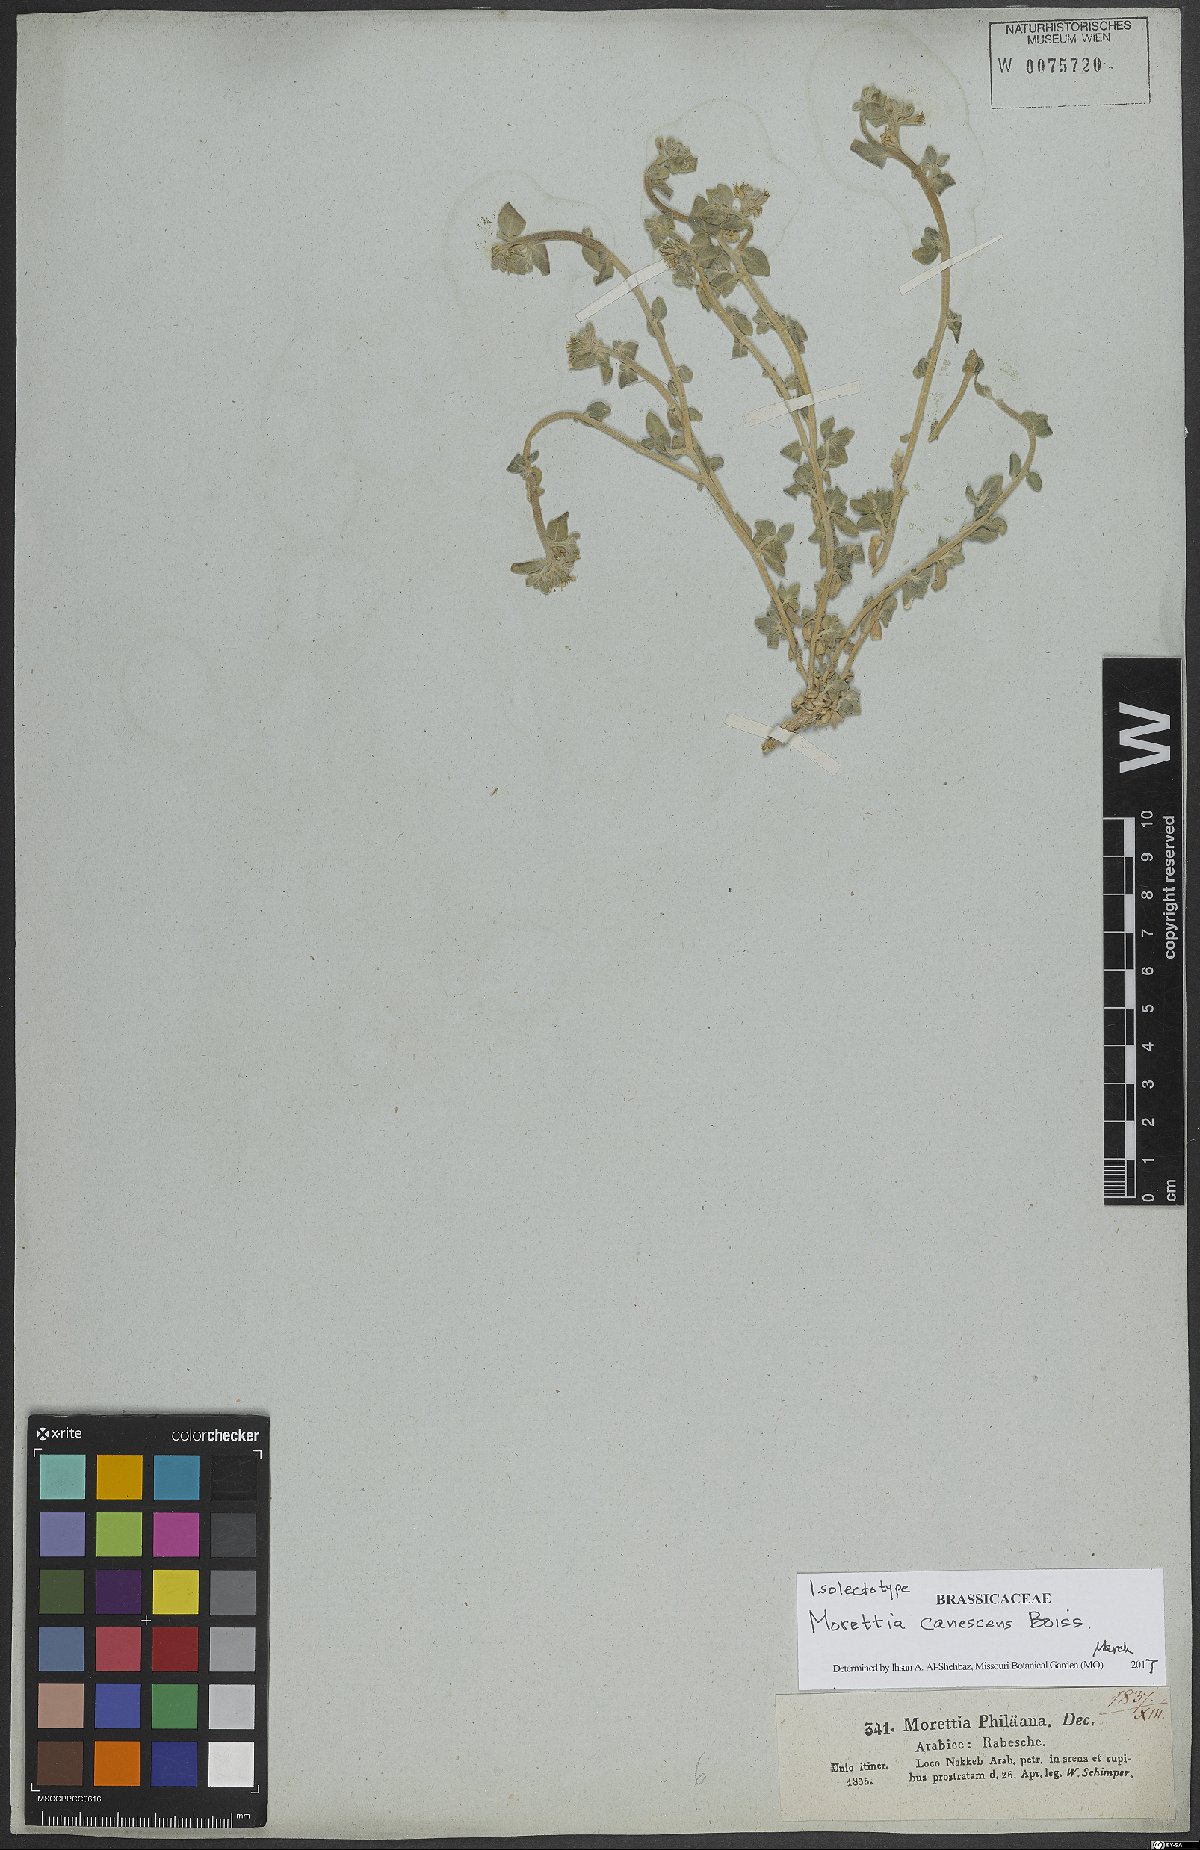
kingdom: Plantae
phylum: Tracheophyta
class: Magnoliopsida
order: Brassicales
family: Brassicaceae
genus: Morettia
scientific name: Morettia canescens
